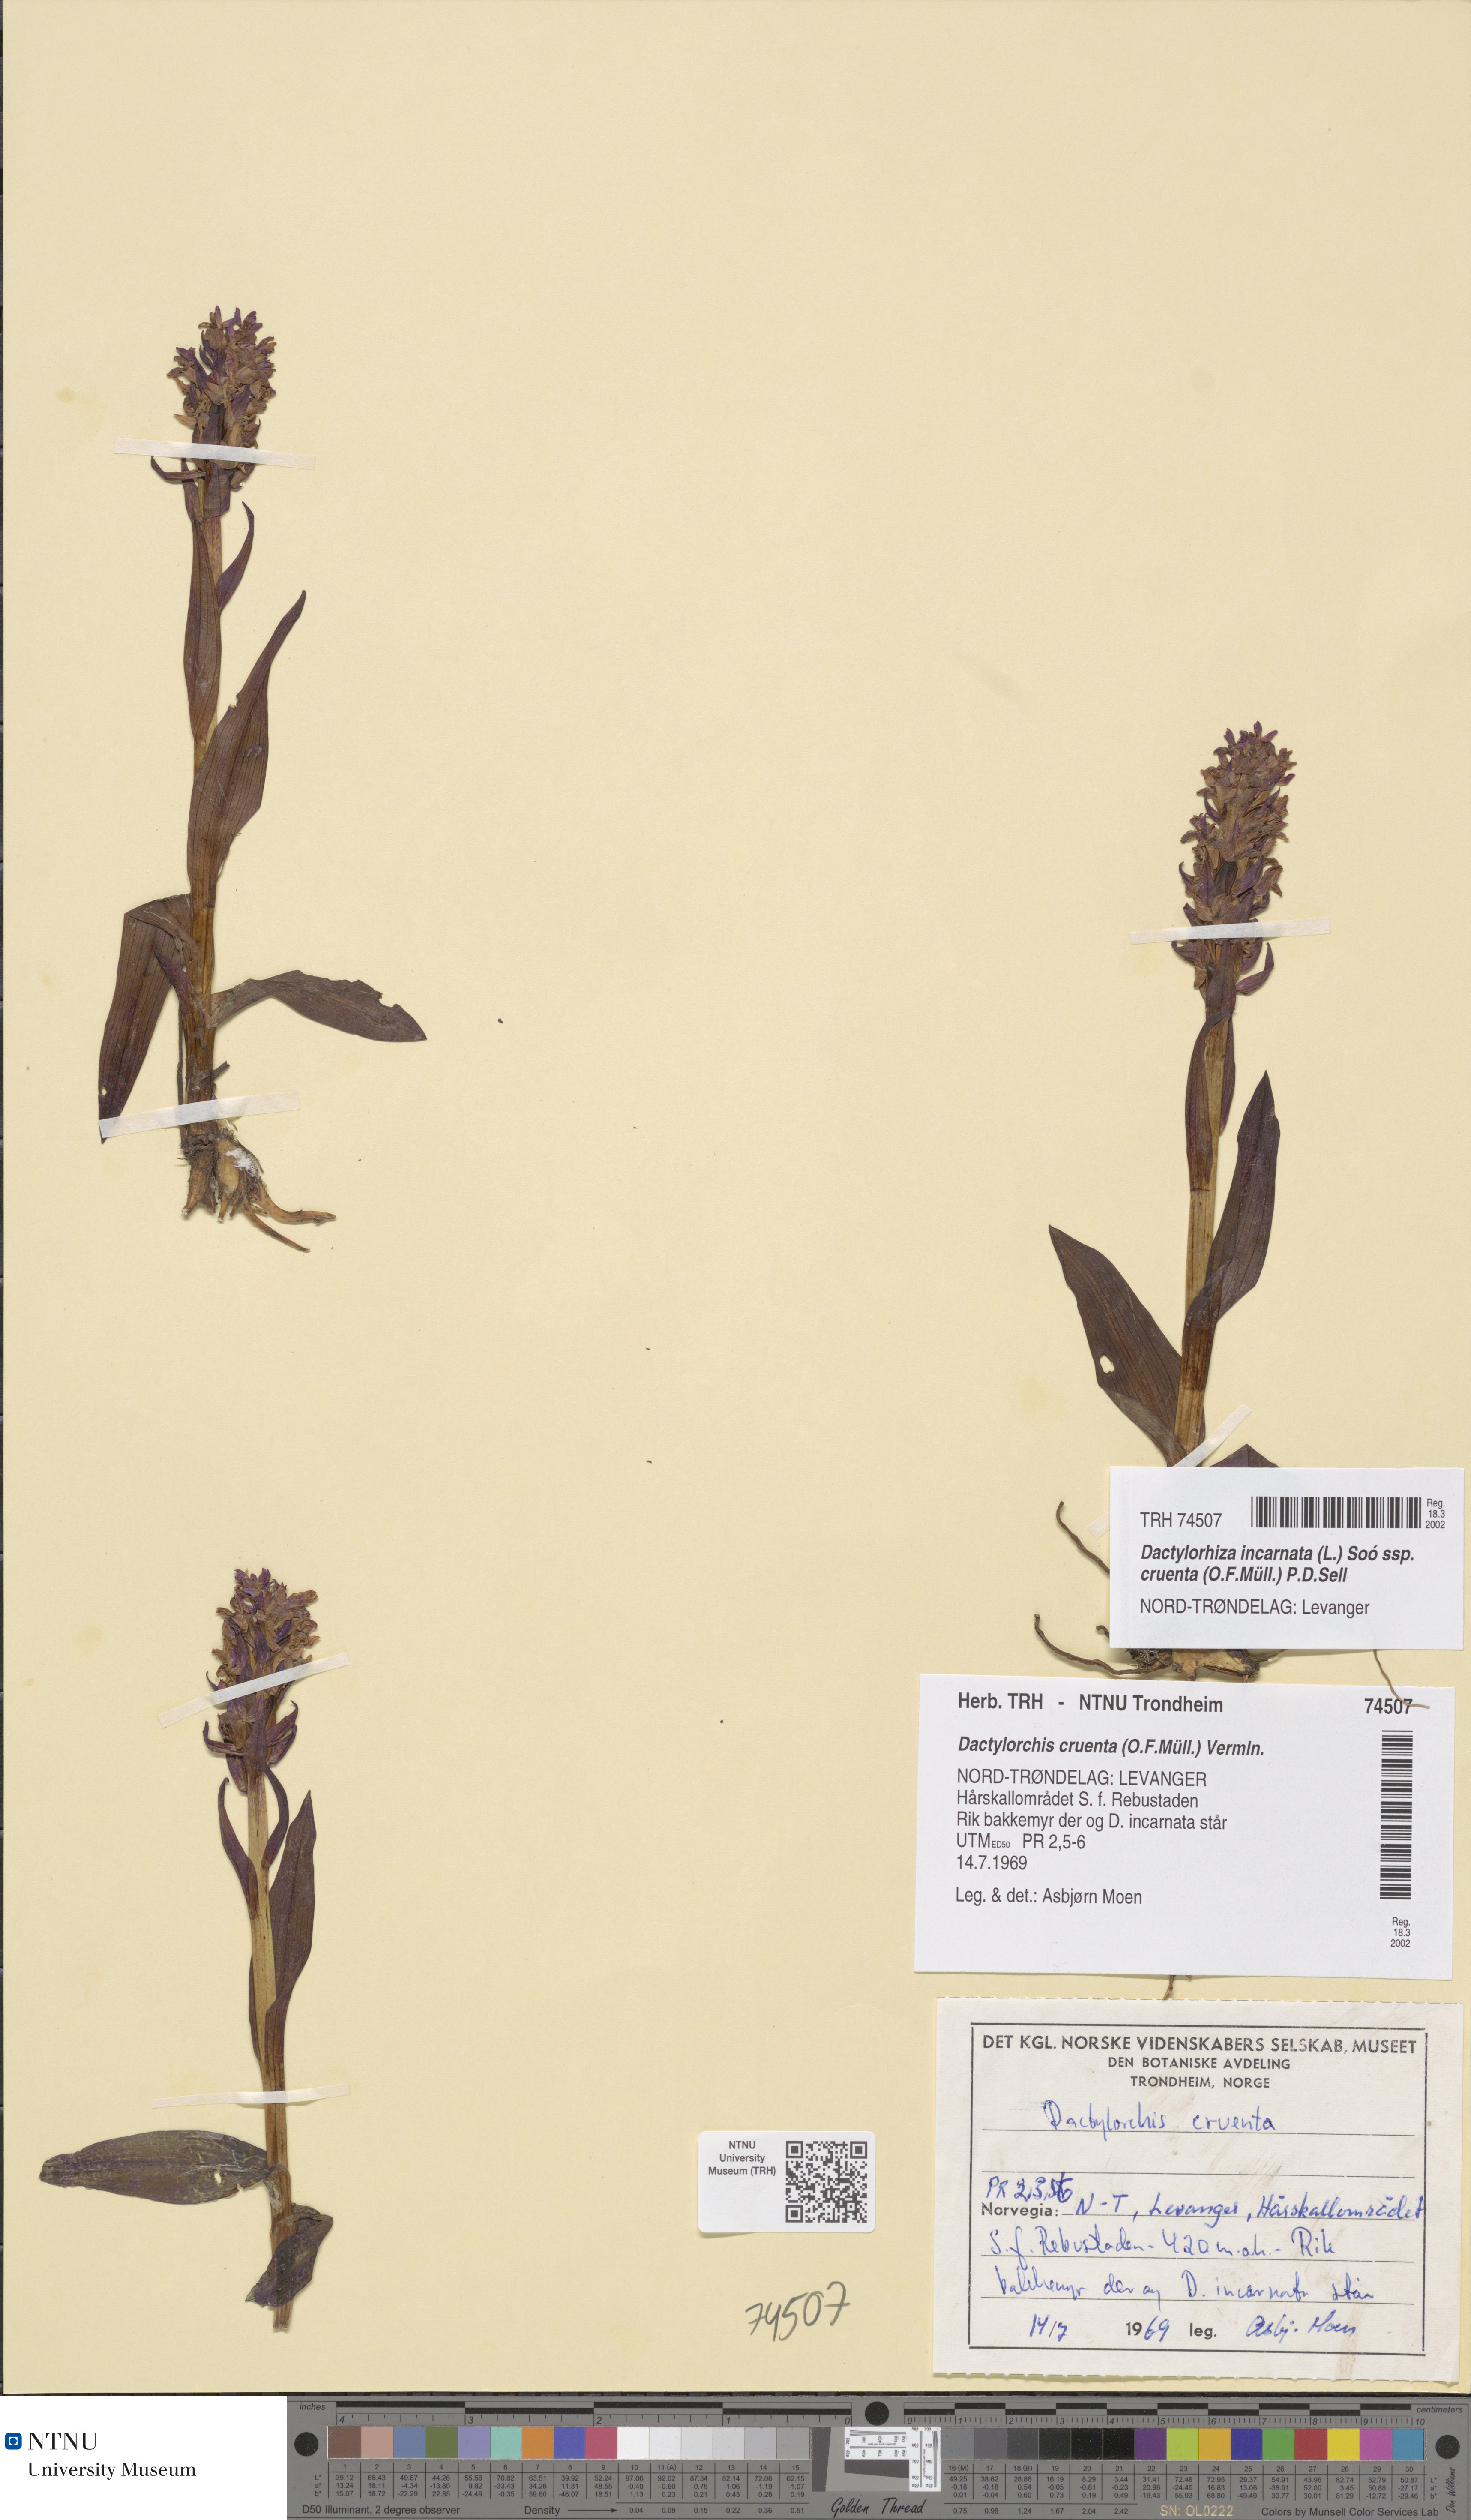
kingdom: Plantae
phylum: Tracheophyta
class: Liliopsida
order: Asparagales
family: Orchidaceae
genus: Dactylorhiza
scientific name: Dactylorhiza incarnata
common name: Early marsh-orchid
